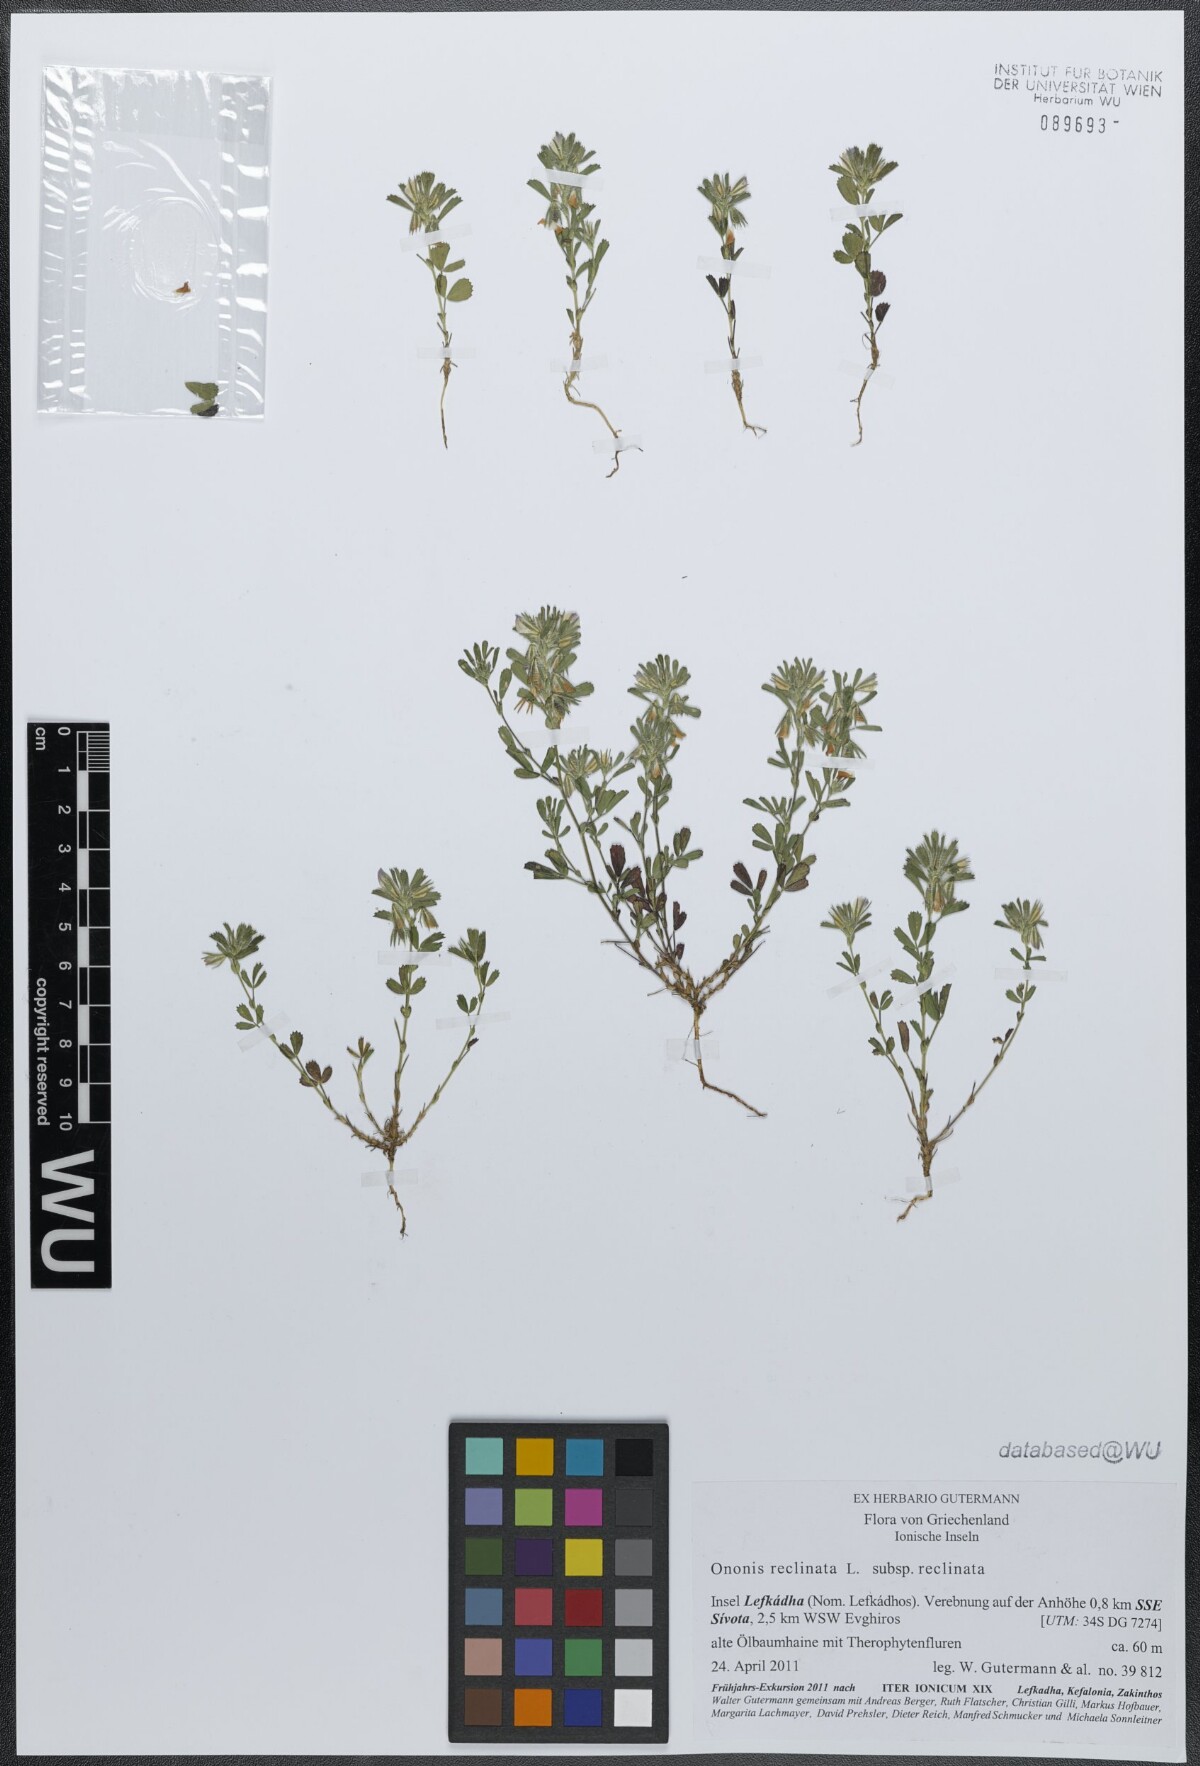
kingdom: Plantae
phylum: Tracheophyta
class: Magnoliopsida
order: Fabales
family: Fabaceae
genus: Ononis
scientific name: Ononis reclinata
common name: Small restharrow
